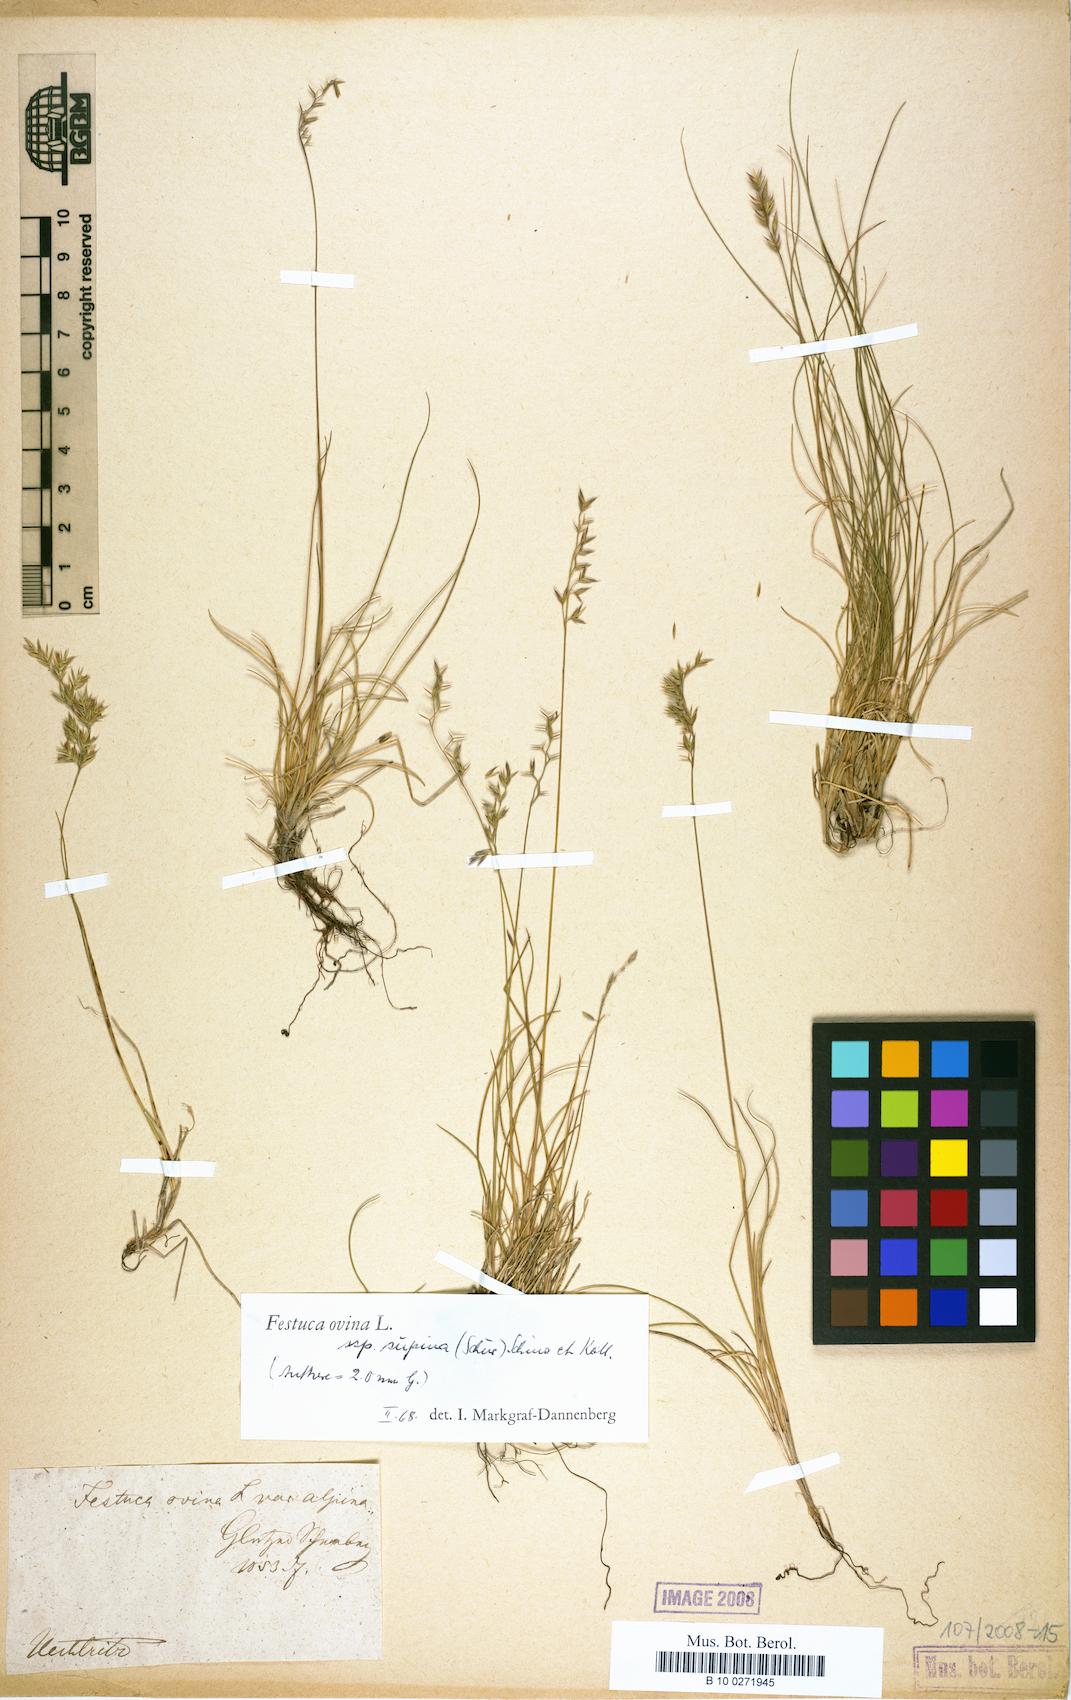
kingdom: Plantae
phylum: Tracheophyta
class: Liliopsida
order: Poales
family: Poaceae
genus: Festuca
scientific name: Festuca supina
